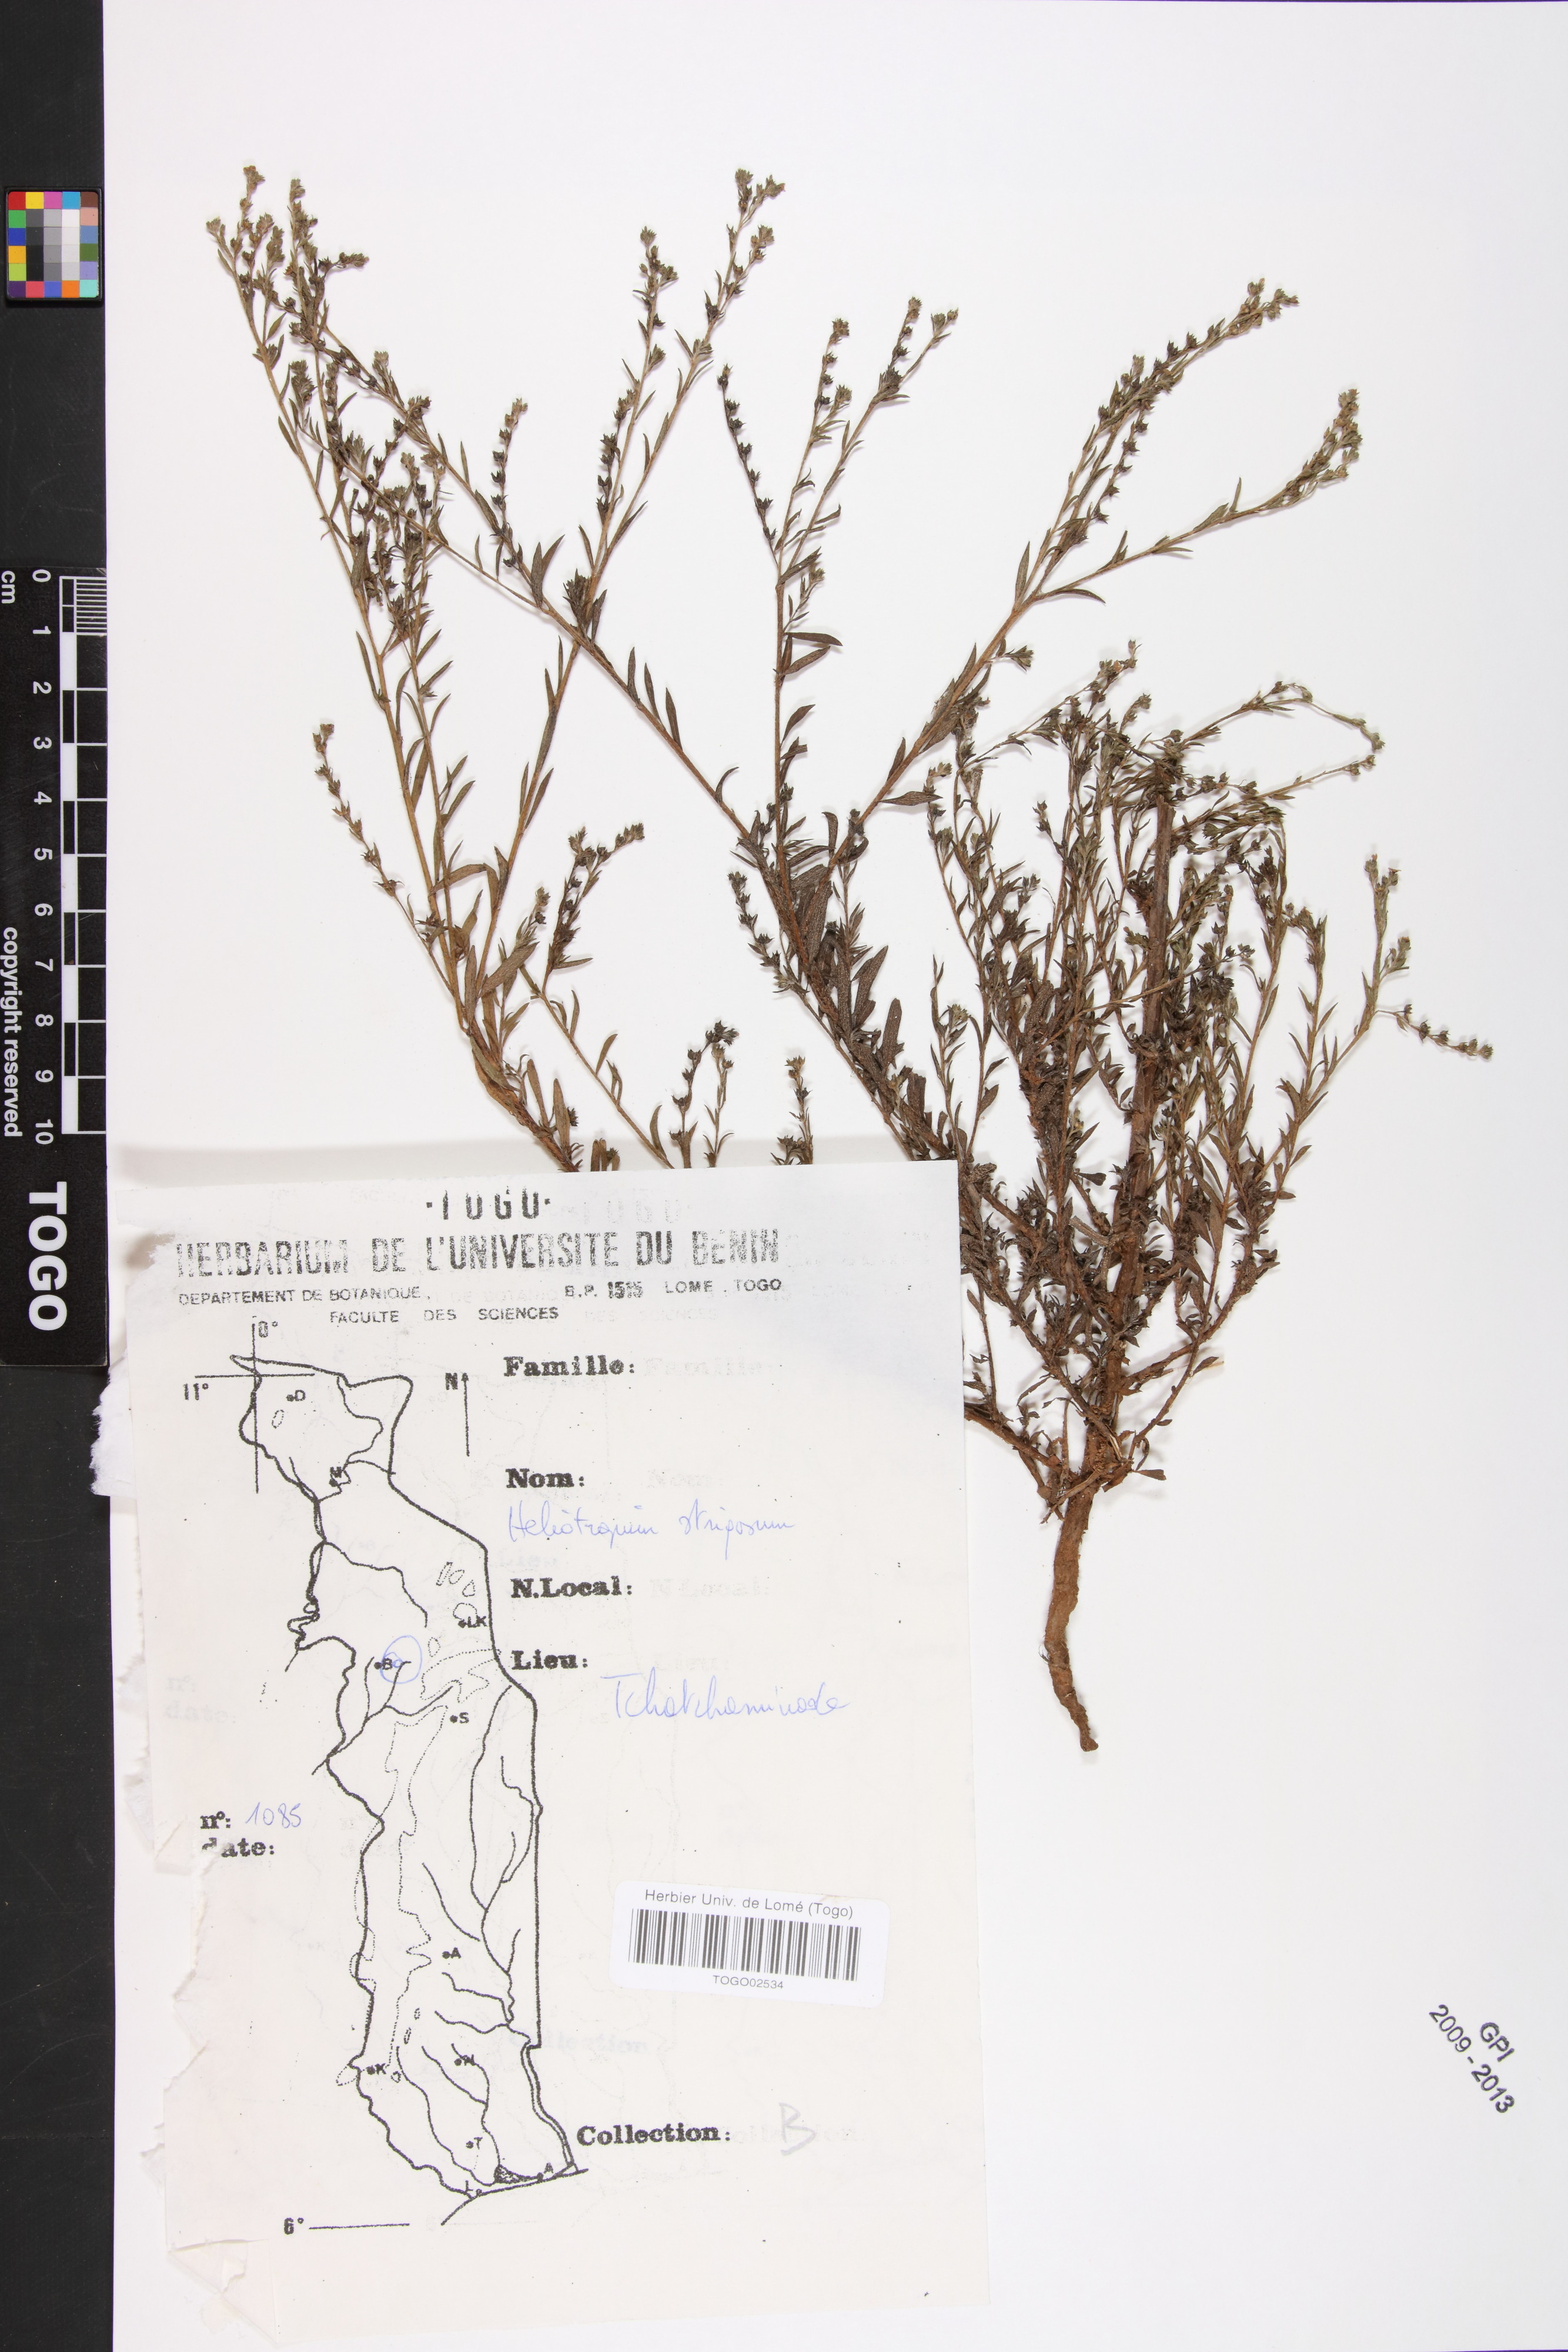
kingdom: Plantae
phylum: Tracheophyta
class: Magnoliopsida
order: Boraginales
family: Heliotropiaceae
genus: Euploca
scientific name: Euploca strigosa
